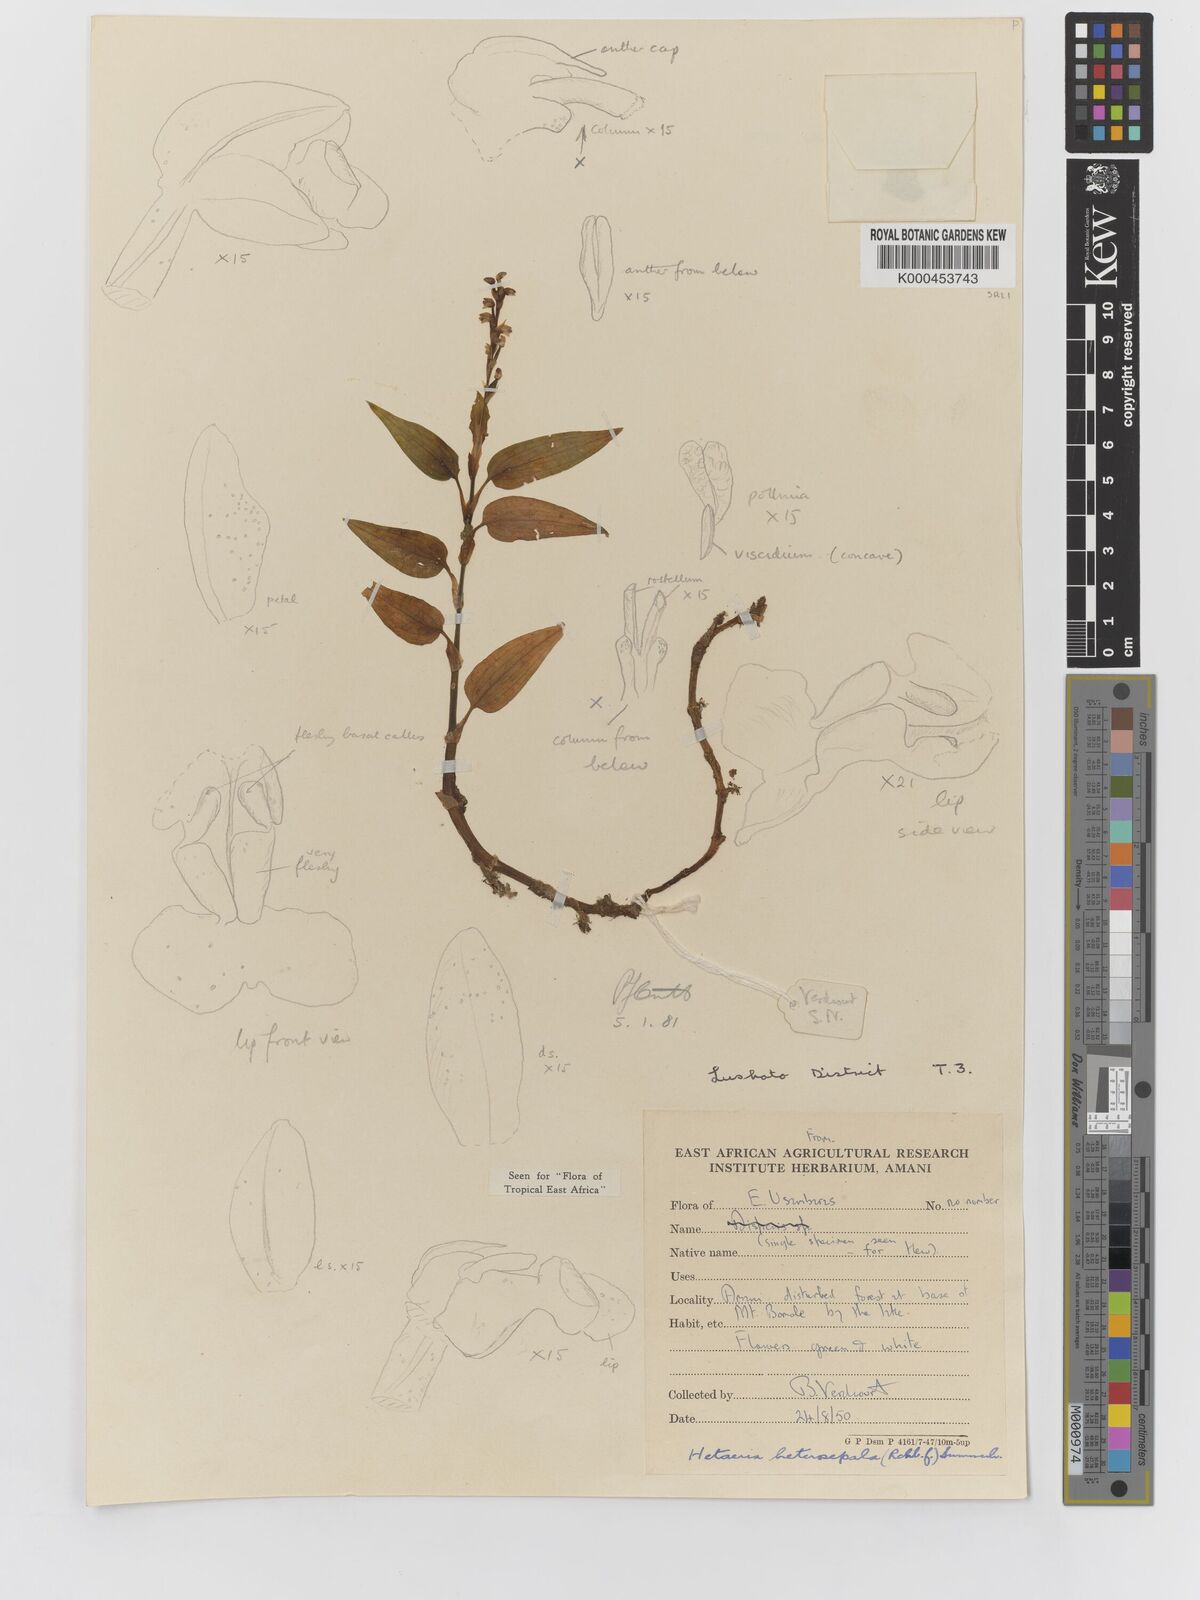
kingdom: Plantae
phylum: Tracheophyta
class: Liliopsida
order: Asparagales
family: Orchidaceae
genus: Hetaeria
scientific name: Hetaeria heterosepala
